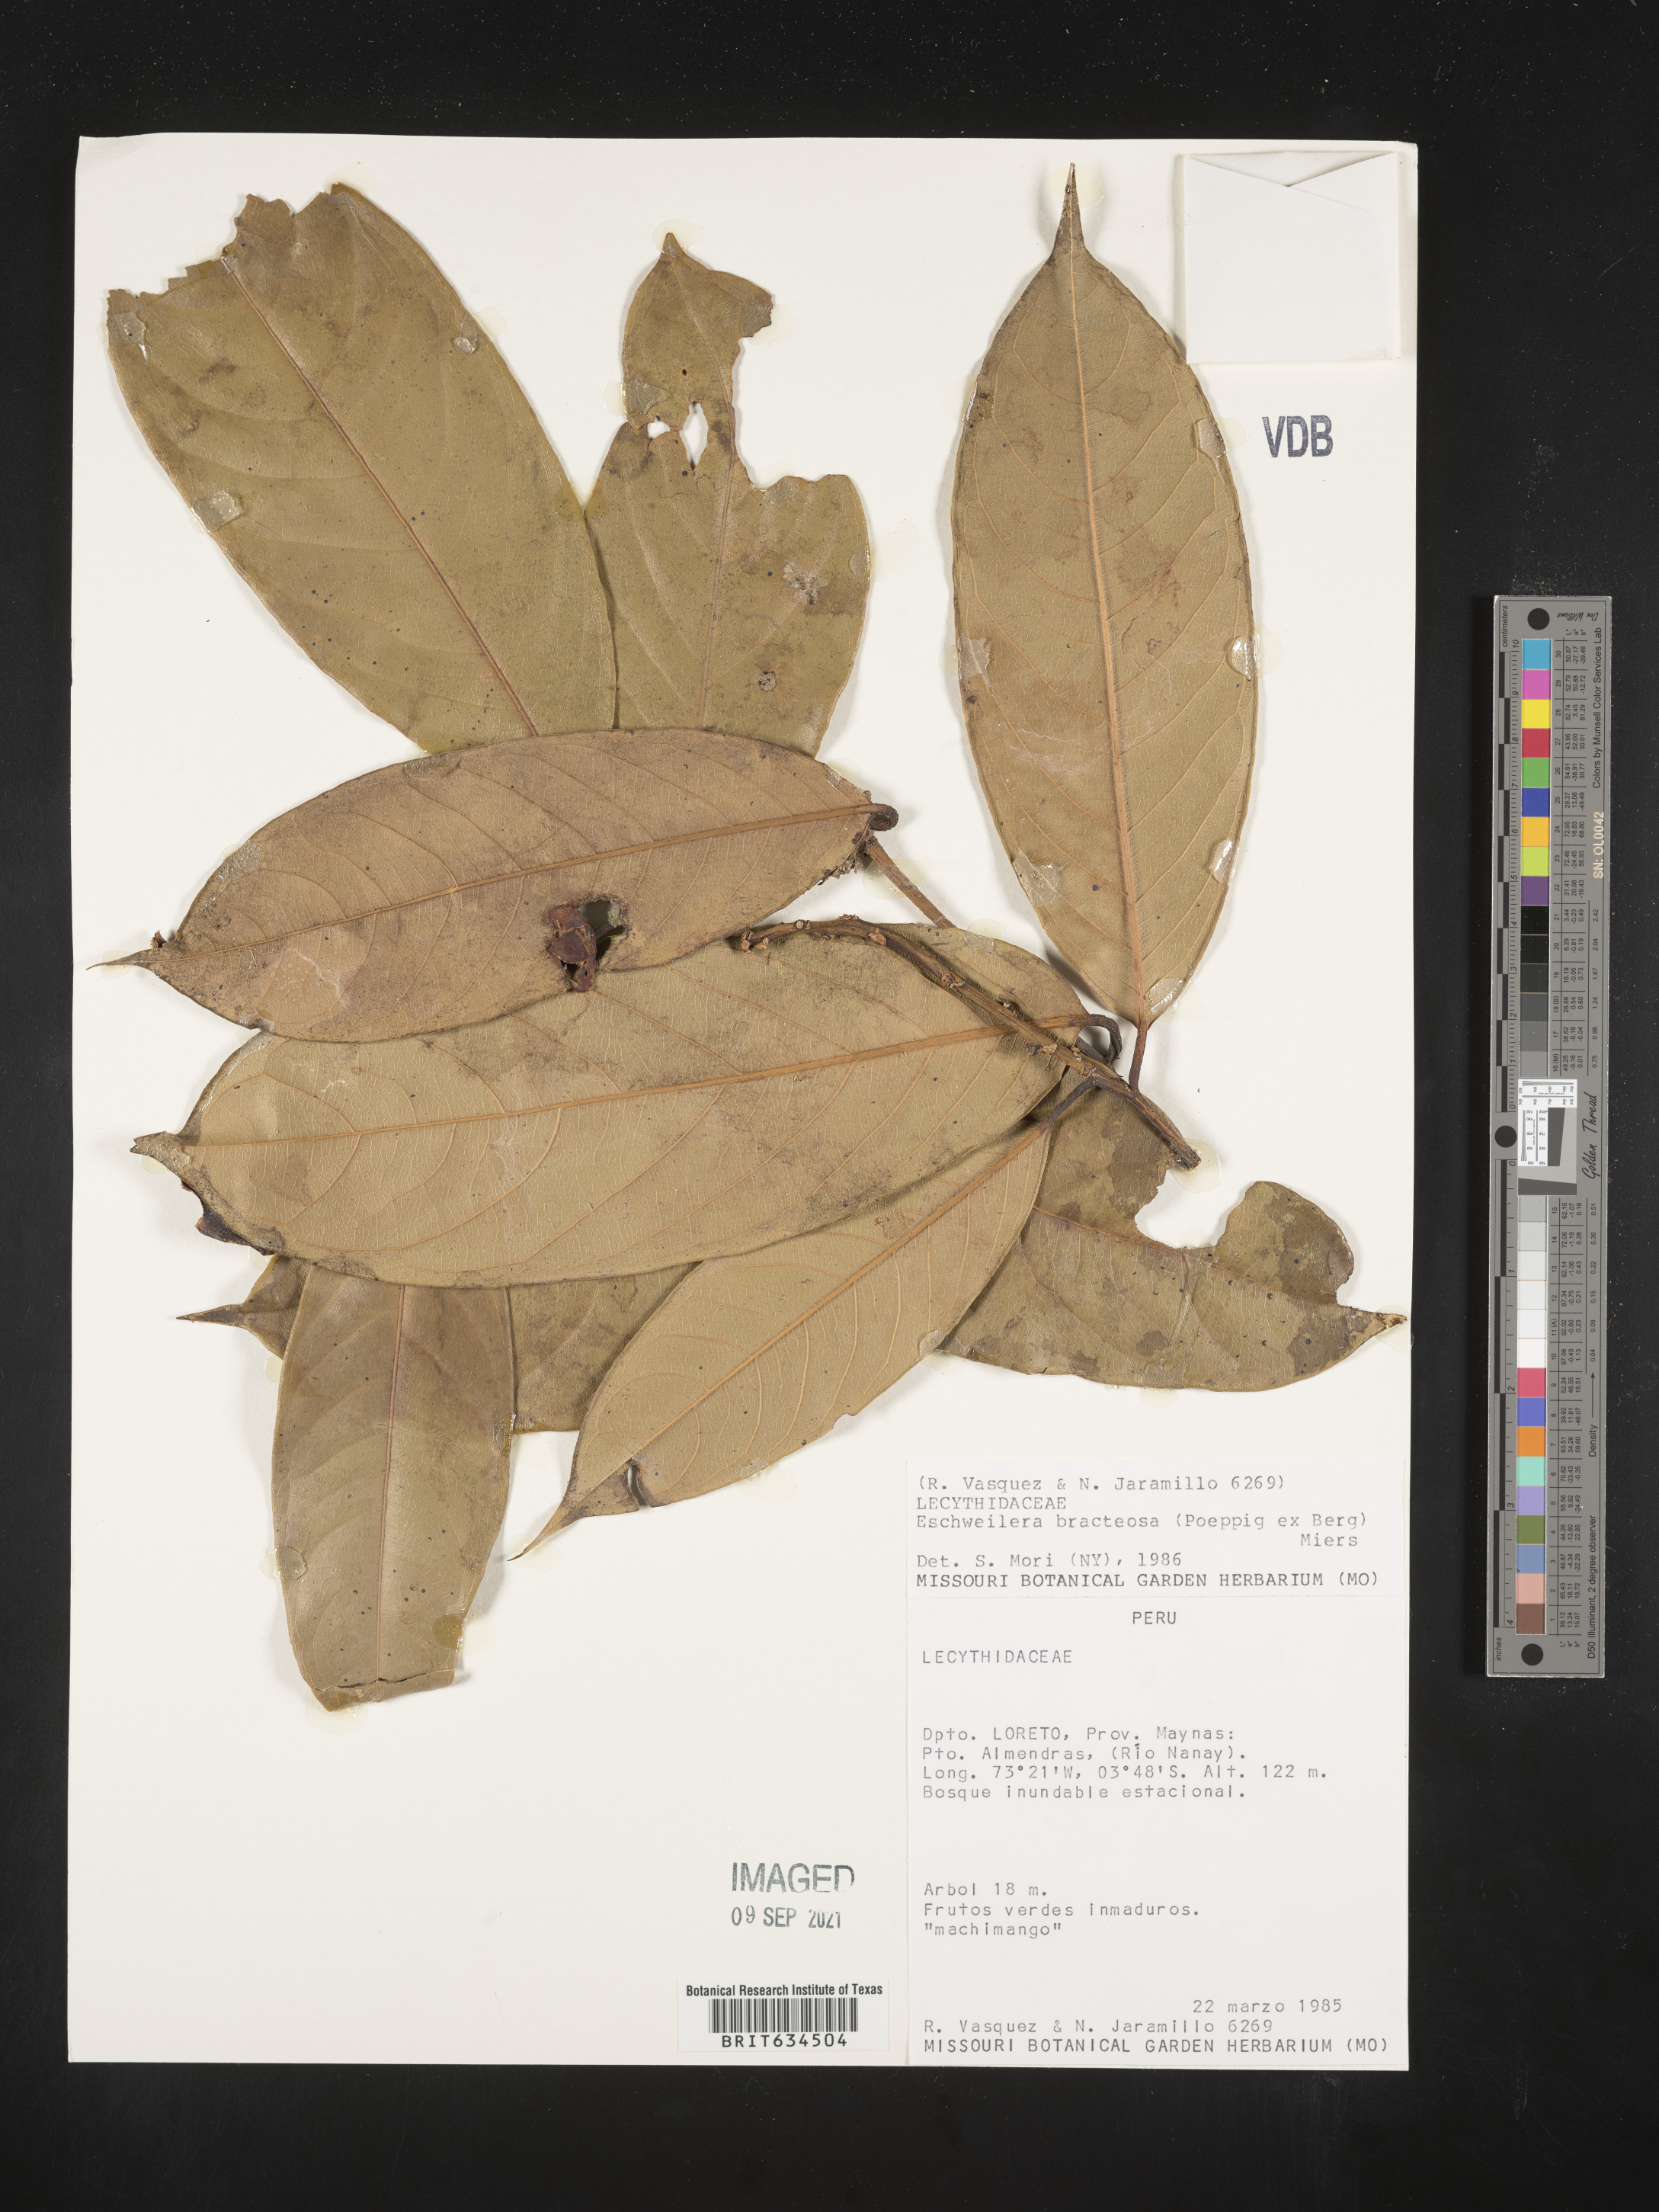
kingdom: Plantae
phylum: Tracheophyta
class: Magnoliopsida
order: Ericales
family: Lecythidaceae
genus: Eschweilera
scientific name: Eschweilera
